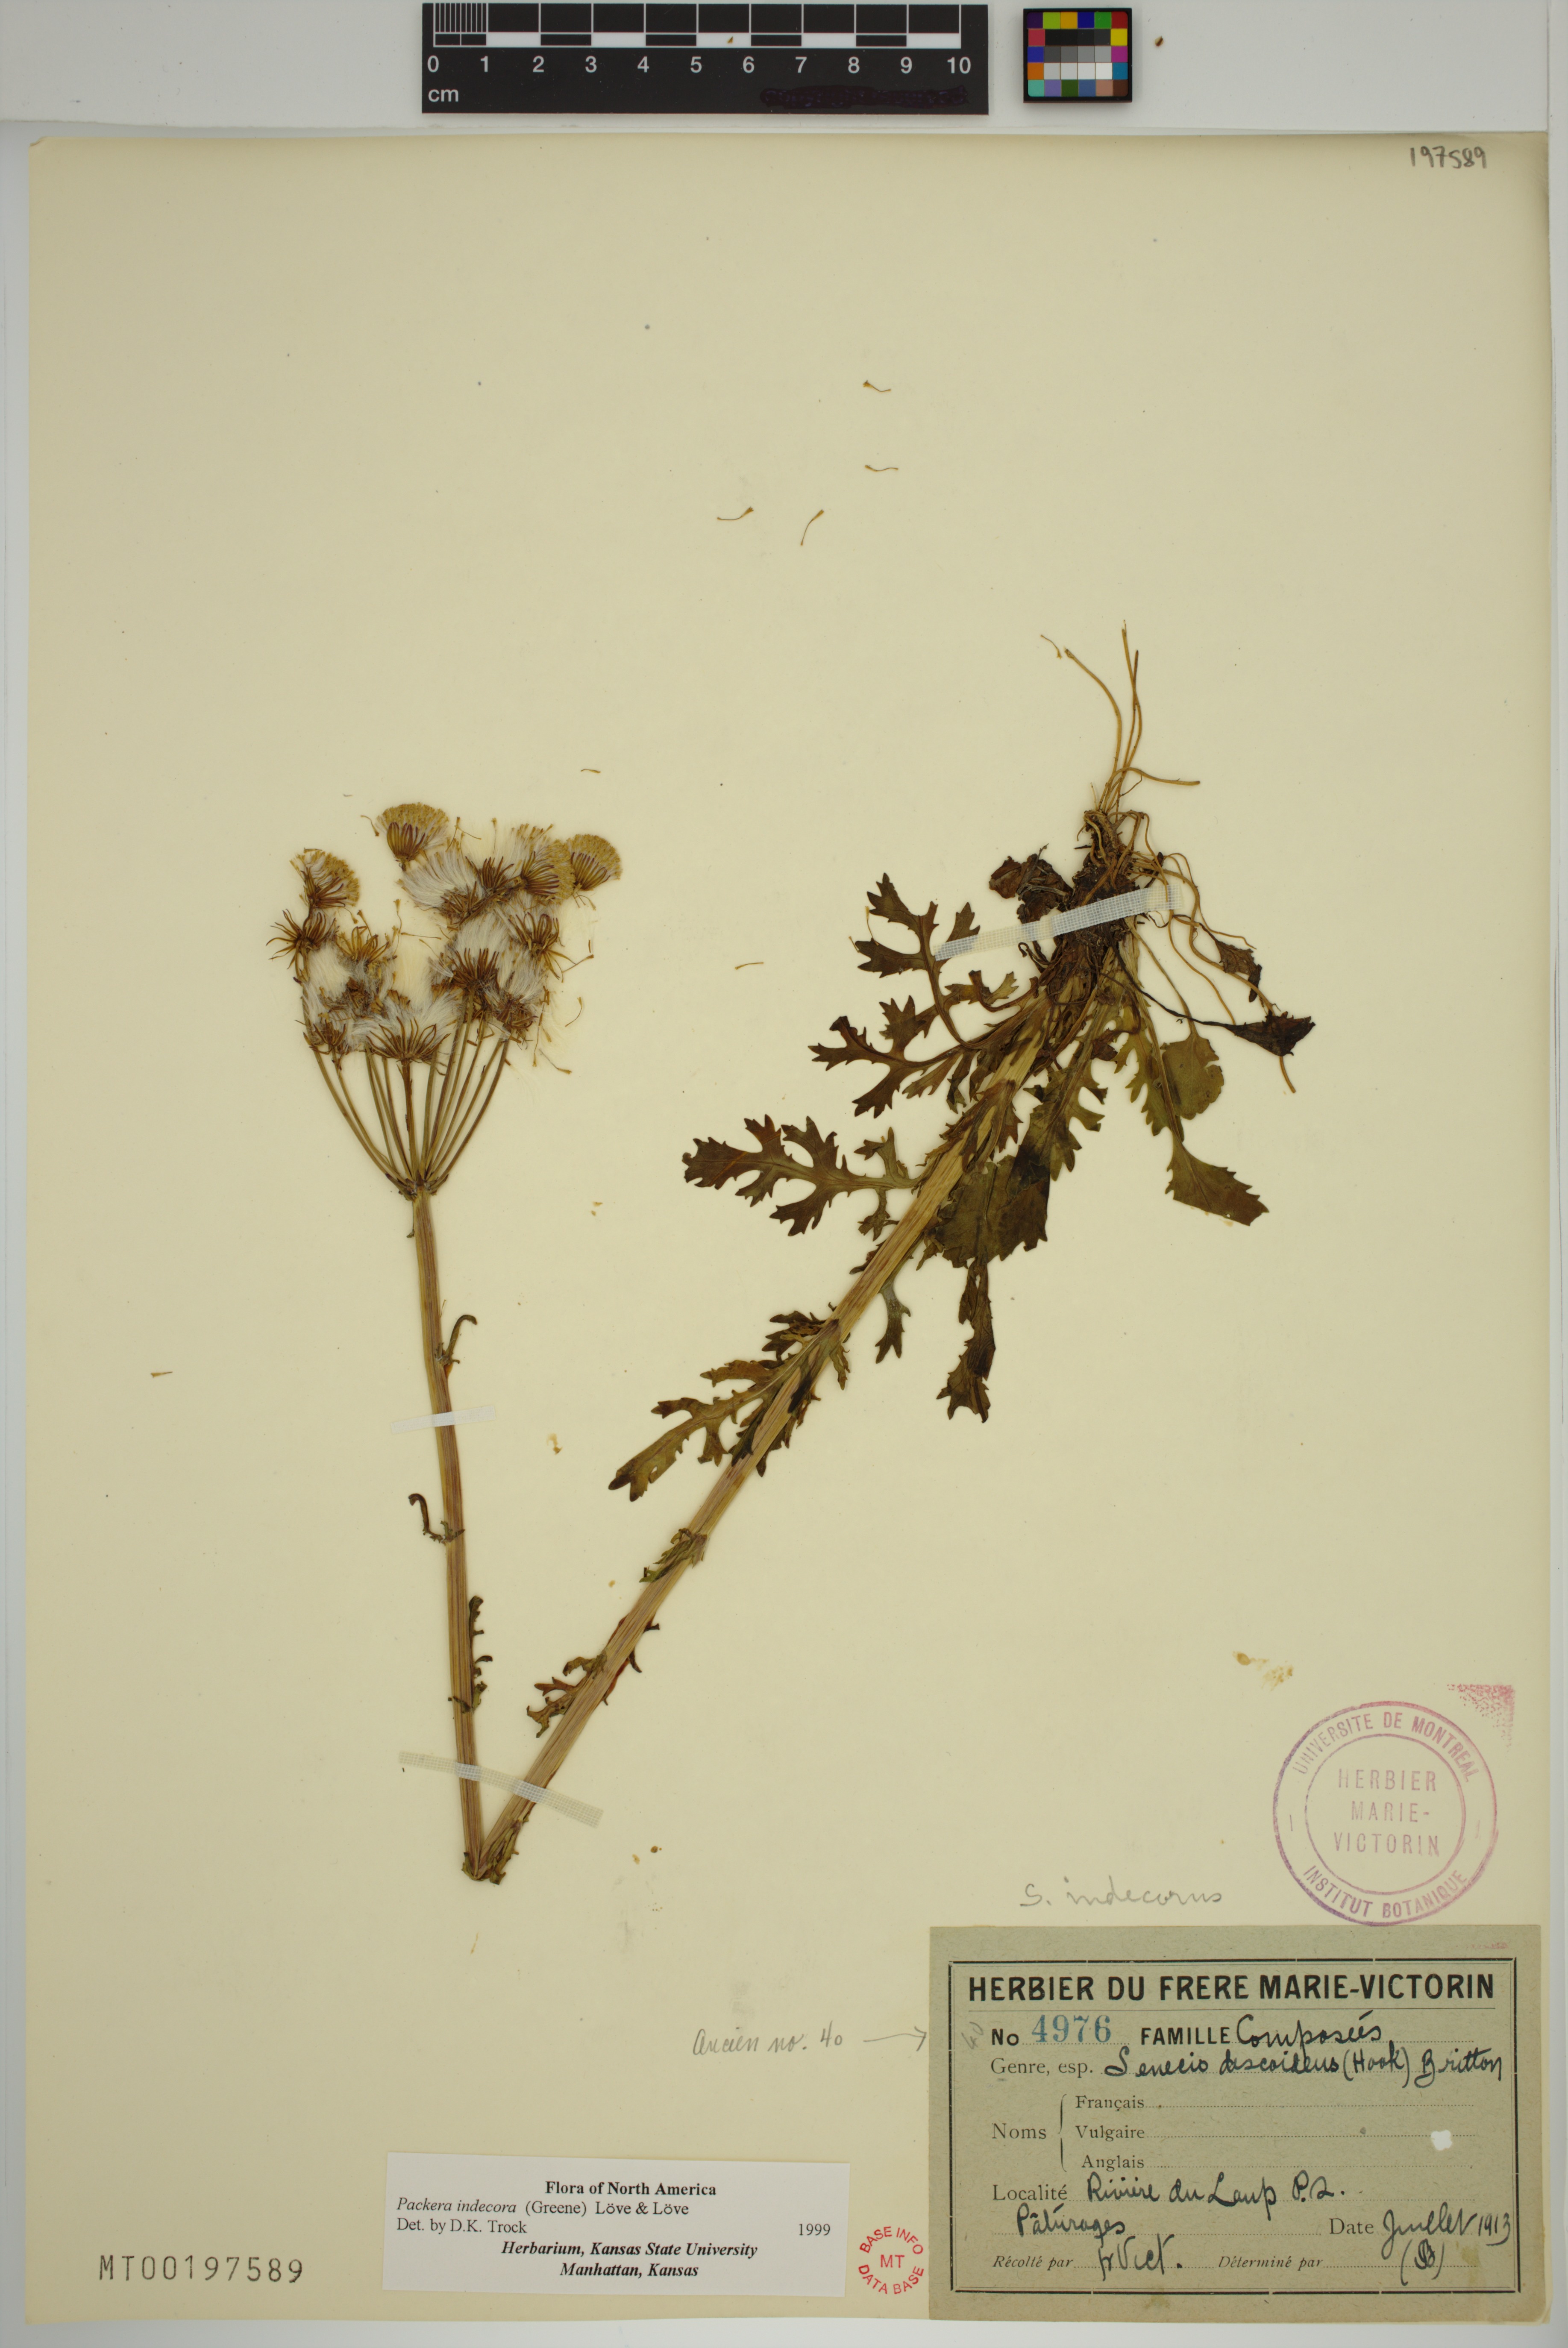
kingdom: Plantae
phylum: Tracheophyta
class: Magnoliopsida
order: Asterales
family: Asteraceae
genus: Packera
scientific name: Packera indecora
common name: Elegant groundsel
